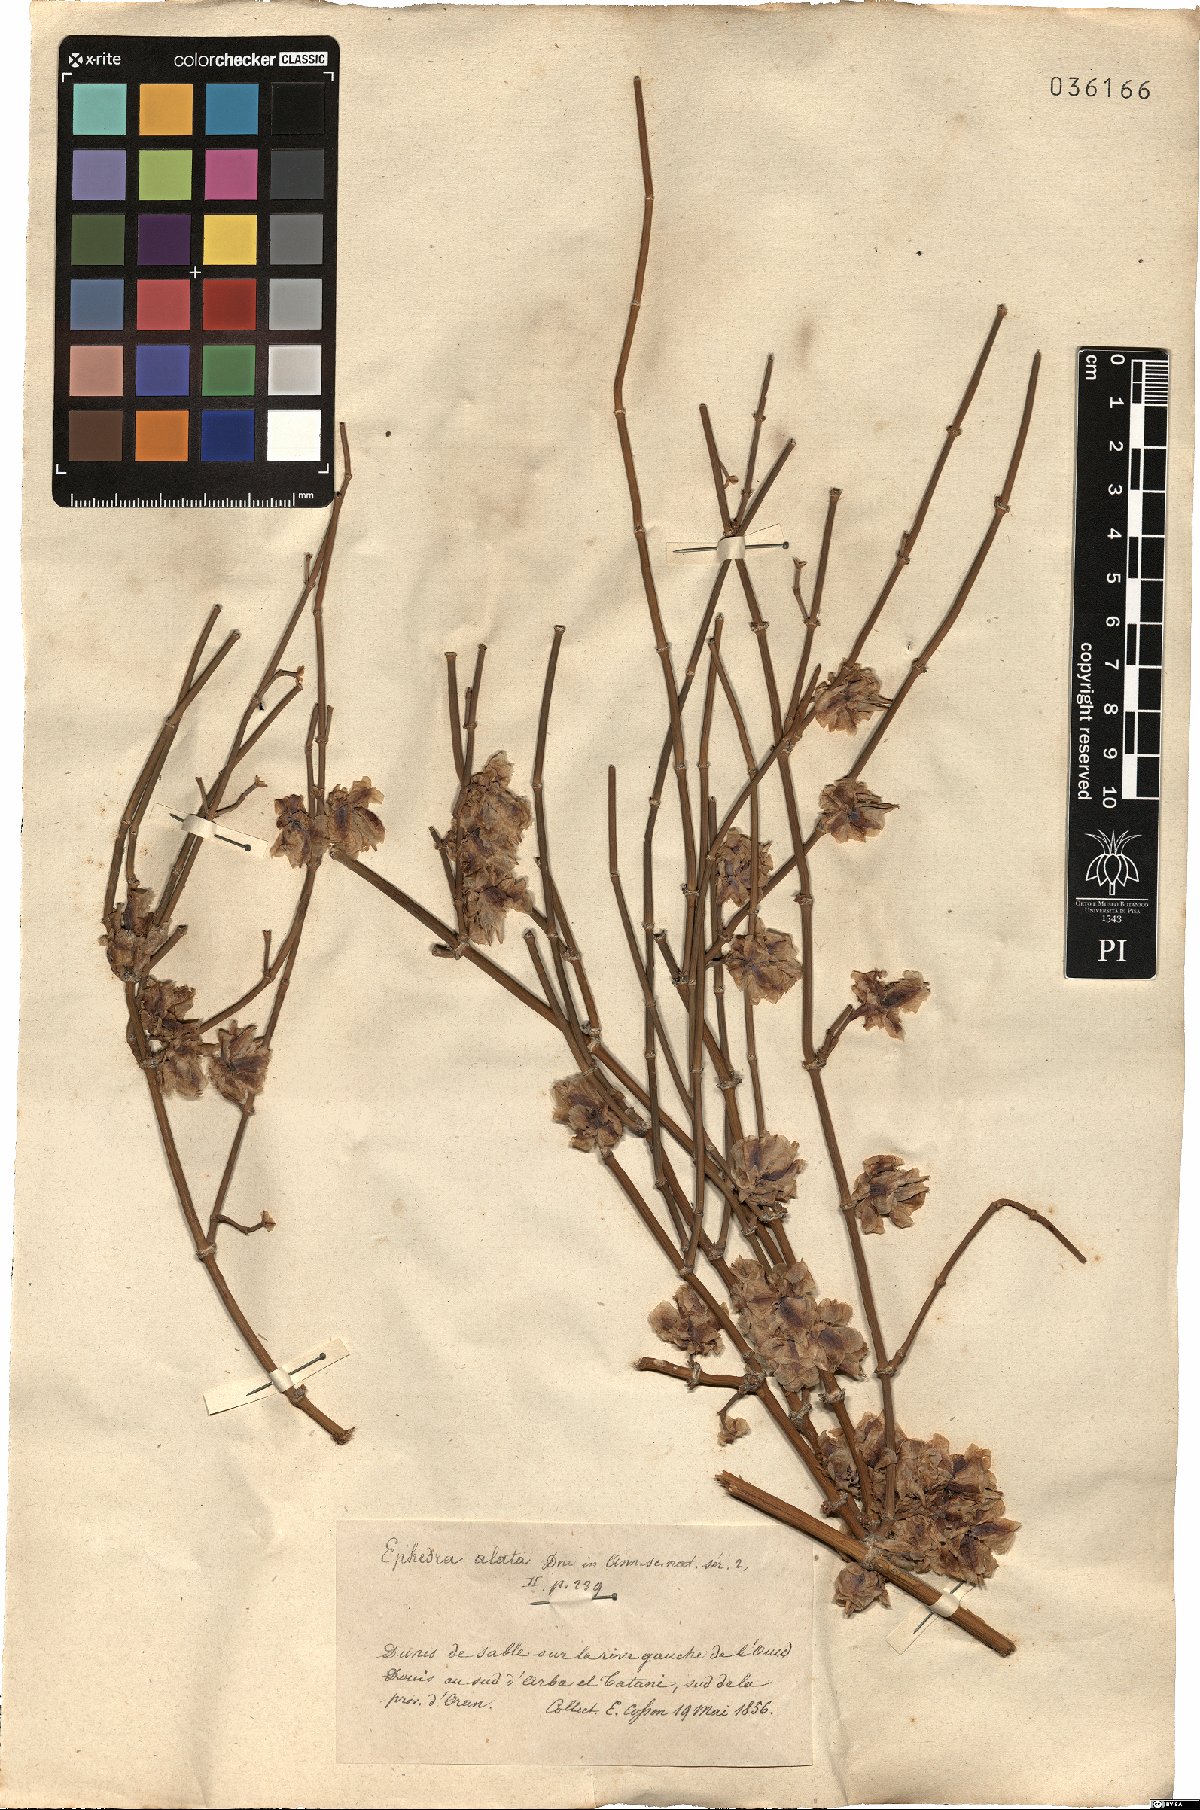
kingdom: Plantae
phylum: Tracheophyta
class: Gnetopsida
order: Ephedrales
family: Ephedraceae
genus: Ephedra
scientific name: Ephedra alata
